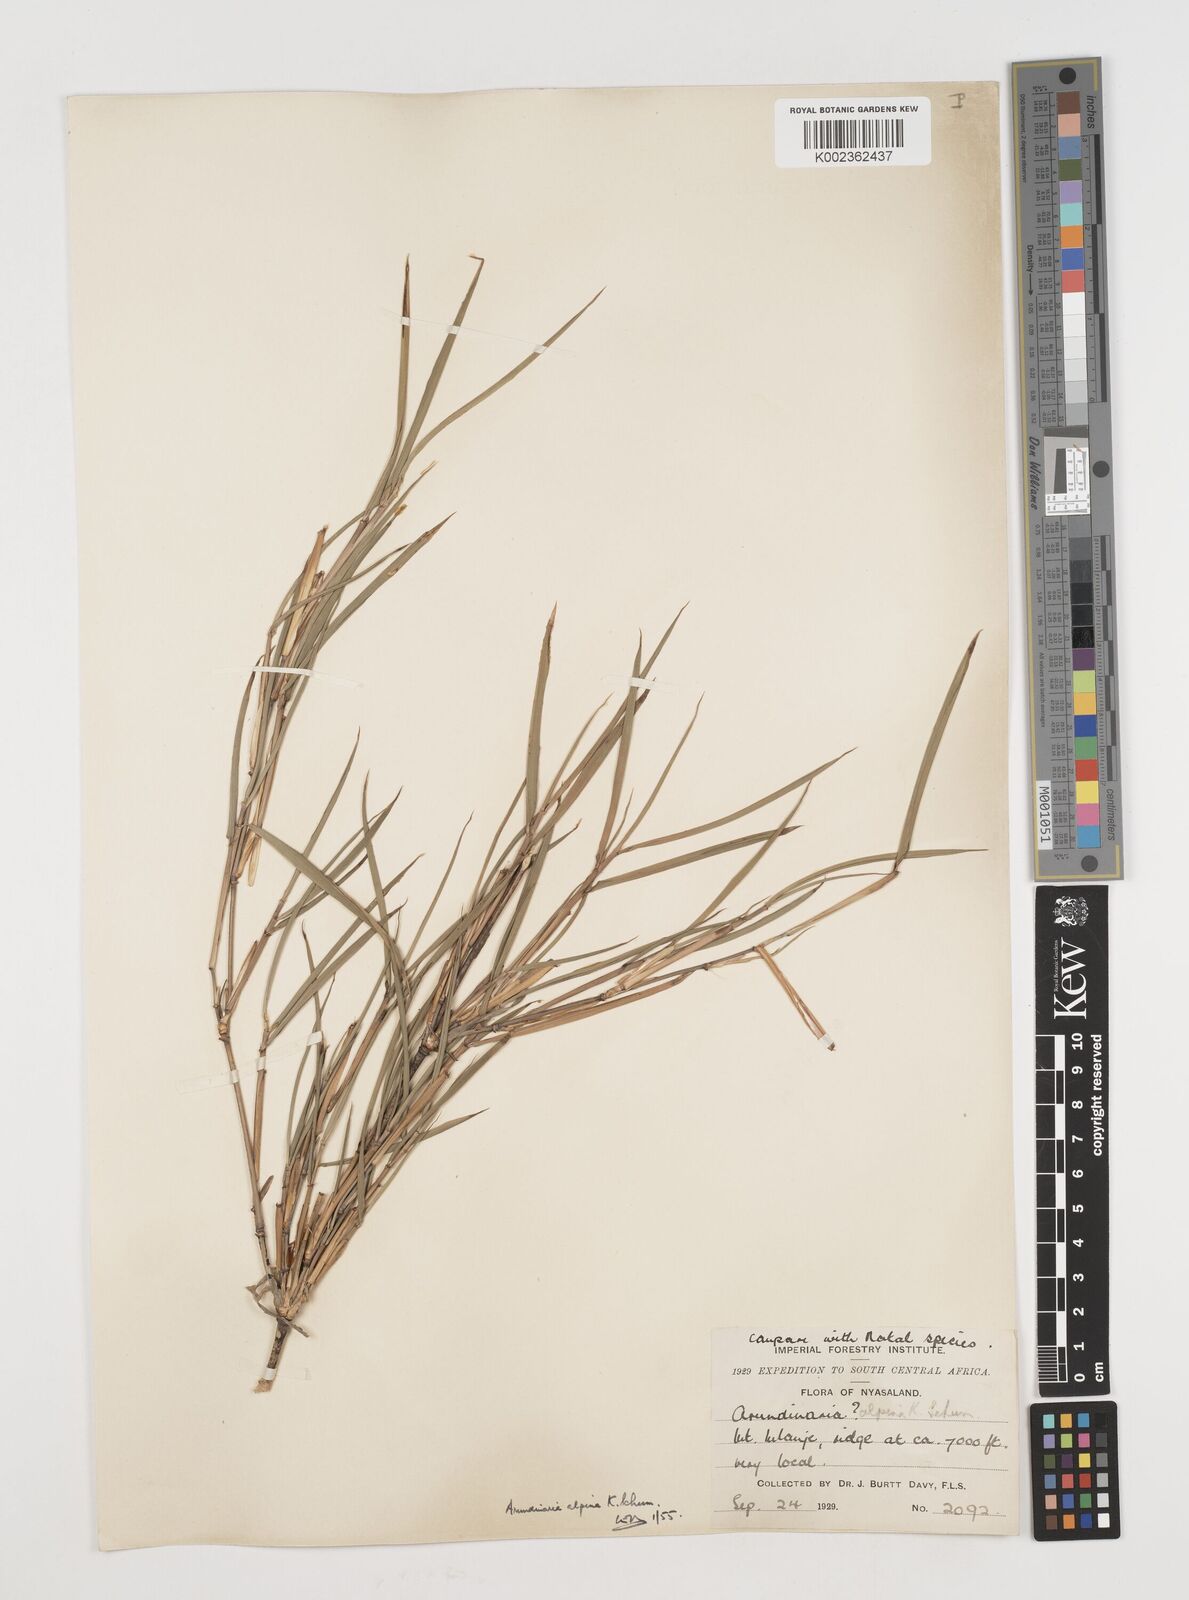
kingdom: Plantae
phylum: Tracheophyta
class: Liliopsida
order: Poales
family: Poaceae
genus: Oldeania
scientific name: Oldeania alpina
